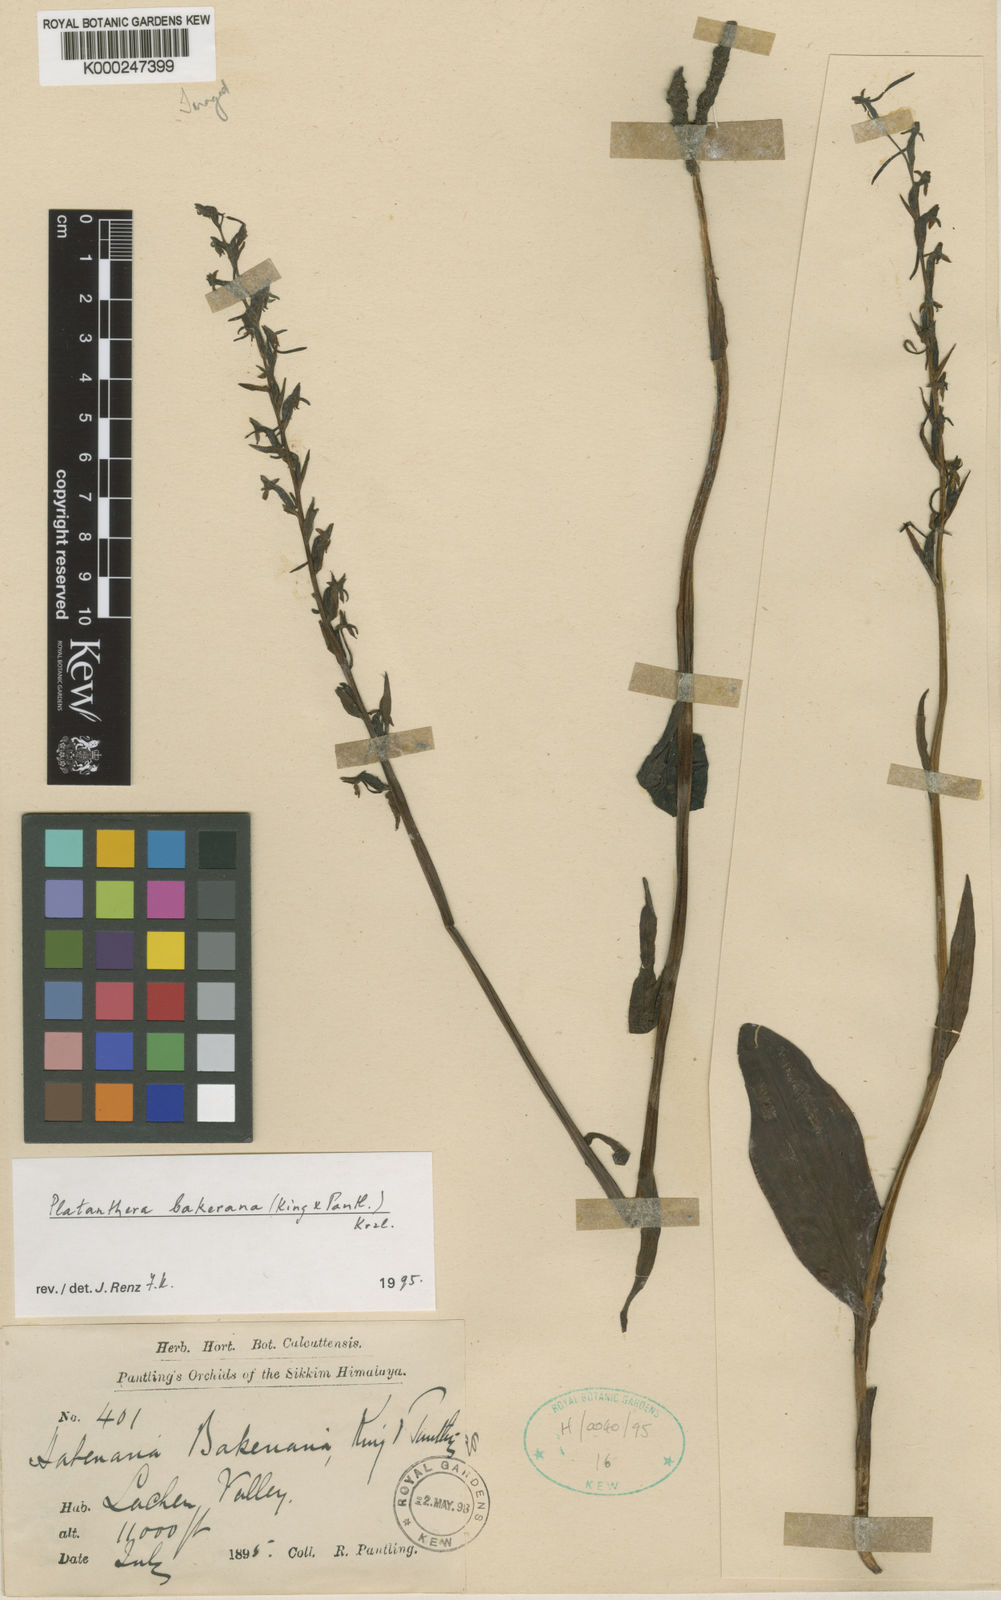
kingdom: Plantae
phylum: Tracheophyta
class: Liliopsida
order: Asparagales
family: Orchidaceae
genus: Platanthera
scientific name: Platanthera bakeriana
